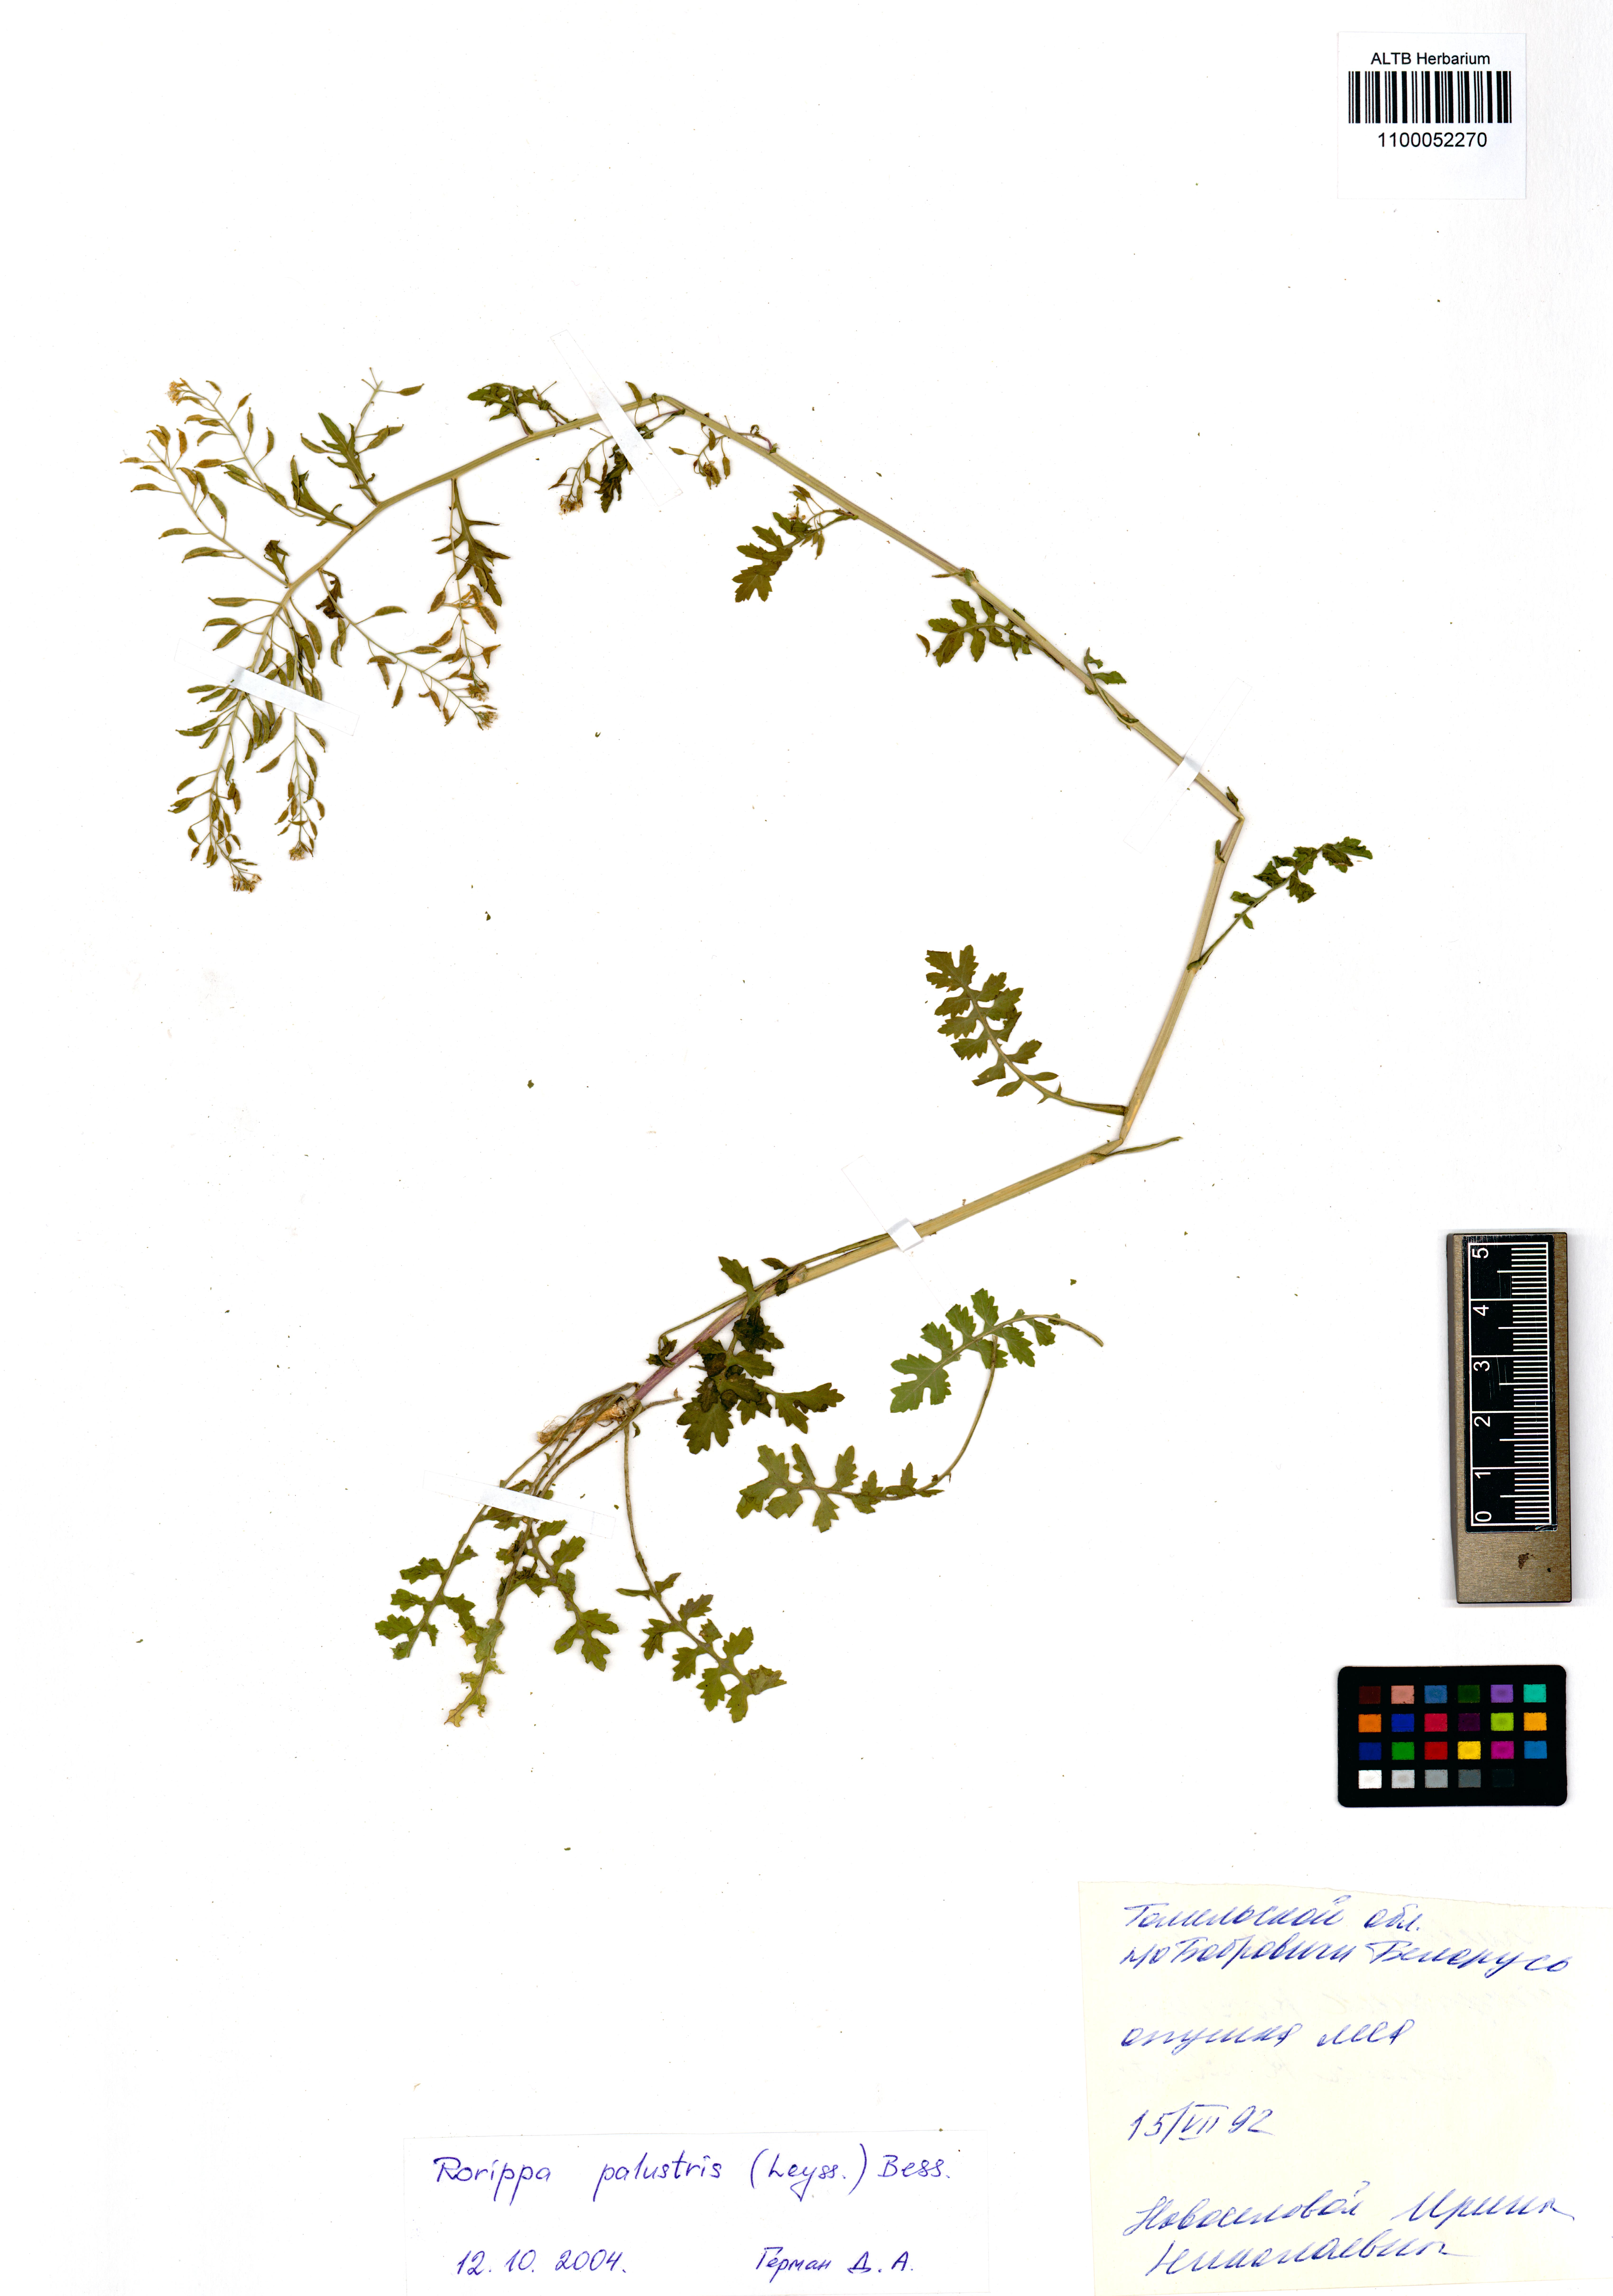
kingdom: Plantae
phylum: Tracheophyta
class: Magnoliopsida
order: Brassicales
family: Brassicaceae
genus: Rorippa
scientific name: Rorippa palustris
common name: Marsh yellow-cress
